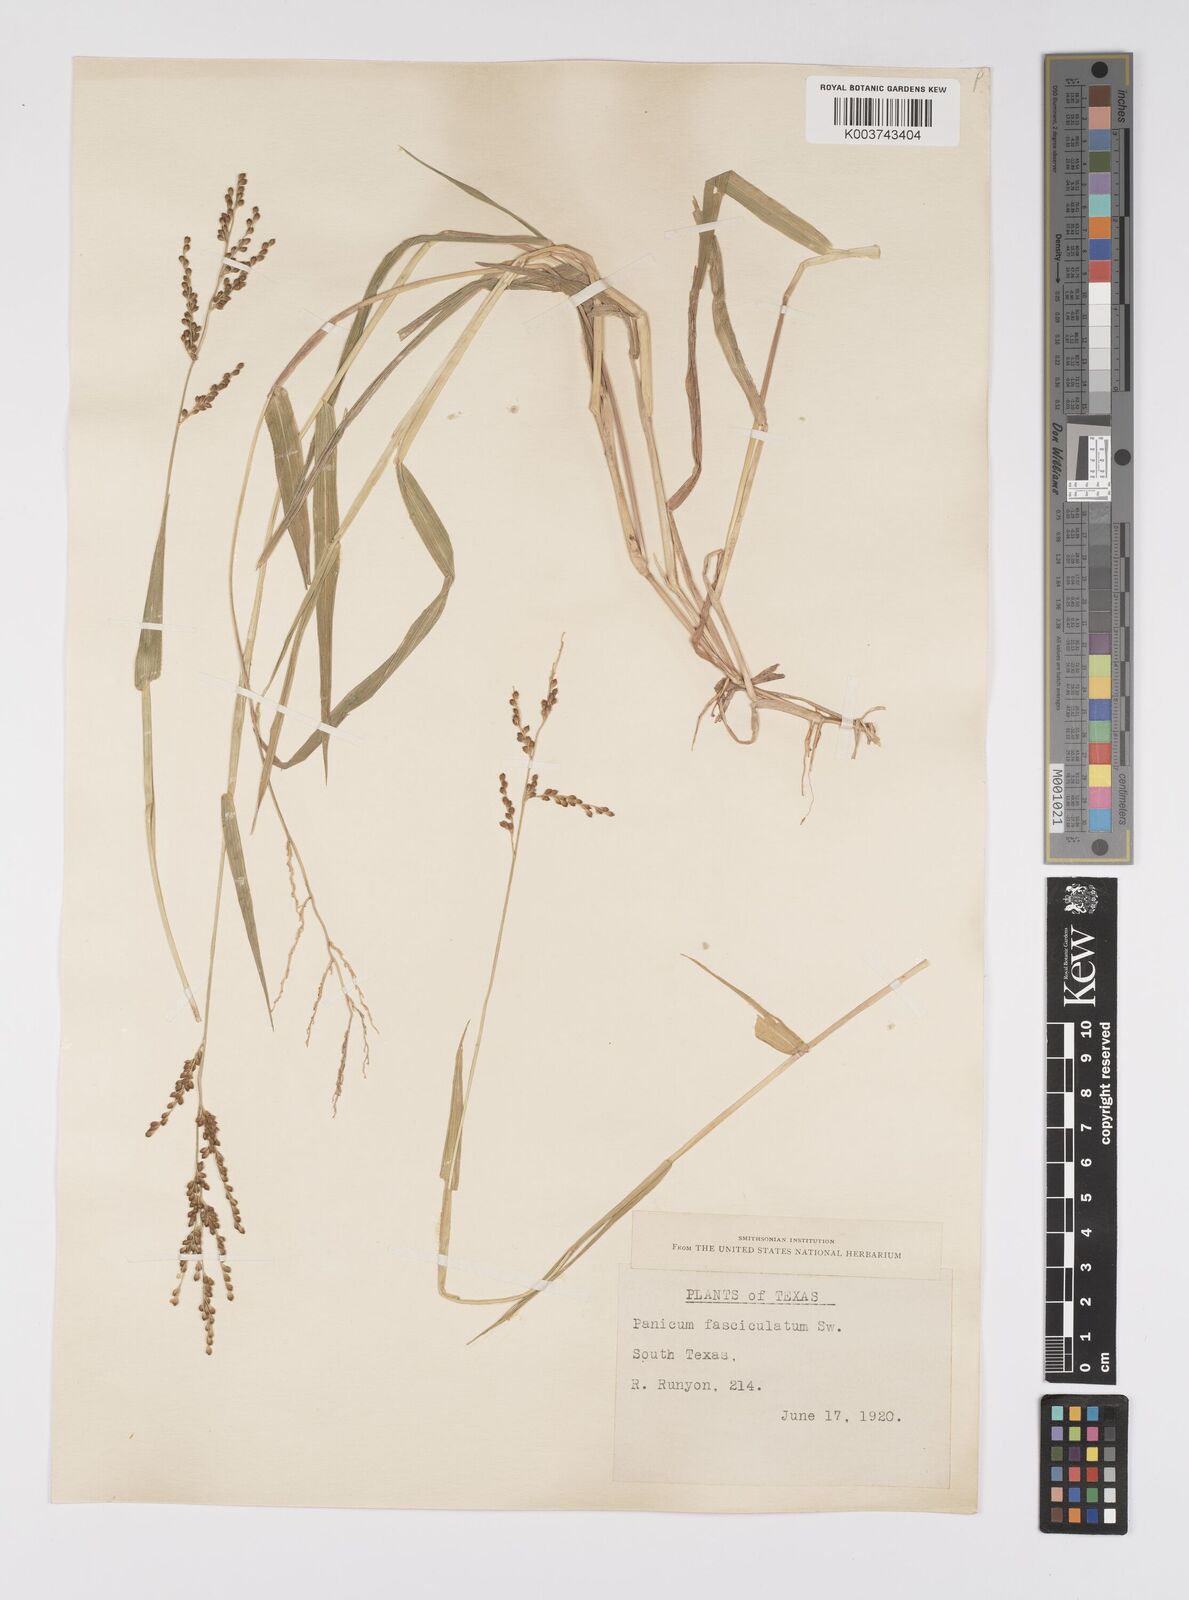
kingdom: Plantae
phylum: Tracheophyta
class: Liliopsida
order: Poales
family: Poaceae
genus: Urochloa
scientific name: Urochloa fusca
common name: Browntop signal grass
